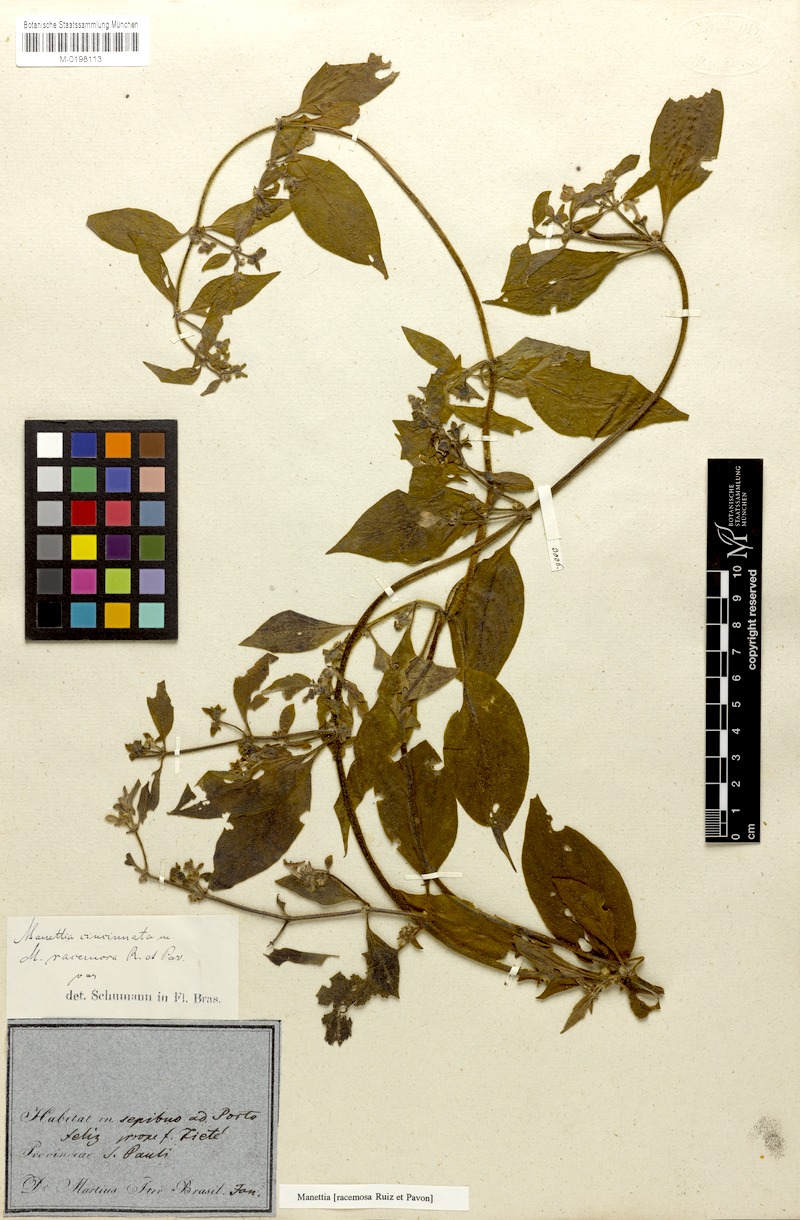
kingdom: Plantae
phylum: Tracheophyta
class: Magnoliopsida
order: Gentianales
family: Rubiaceae
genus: Manettia
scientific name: Manettia racemosa
